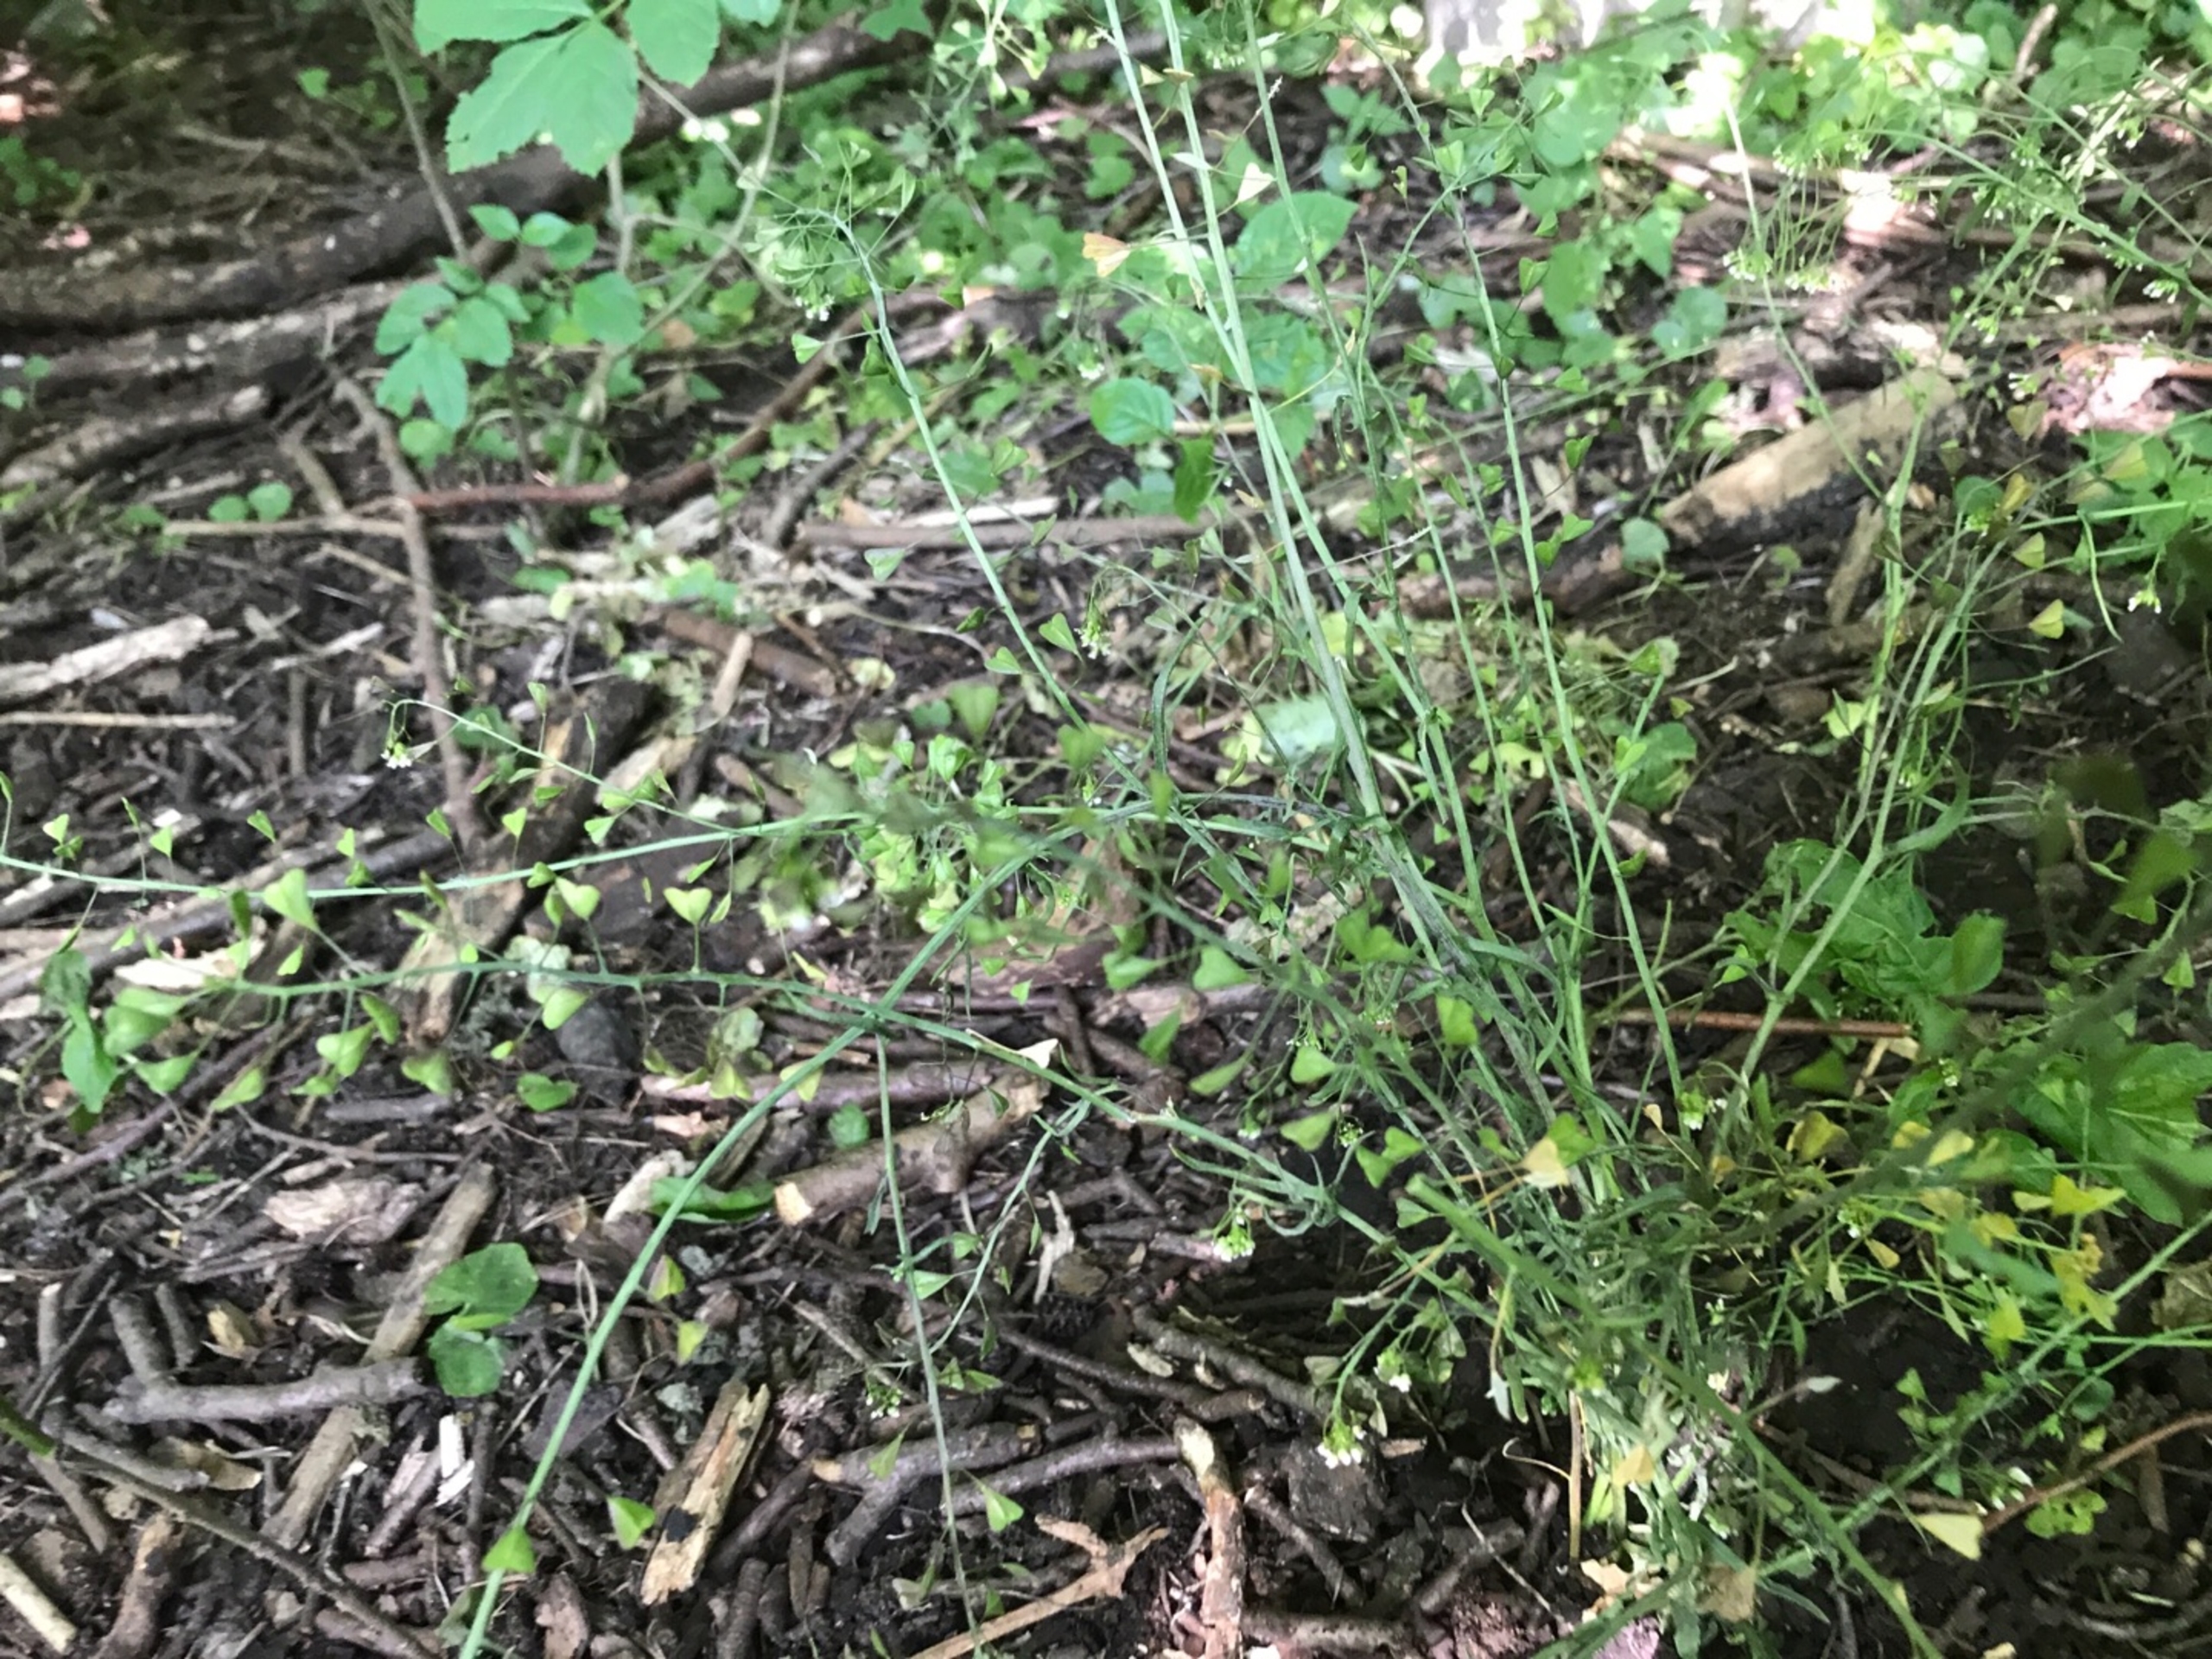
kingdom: Plantae
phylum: Tracheophyta
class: Magnoliopsida
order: Brassicales
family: Brassicaceae
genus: Capsella
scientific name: Capsella bursa-pastoris
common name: Hyrdetaske
